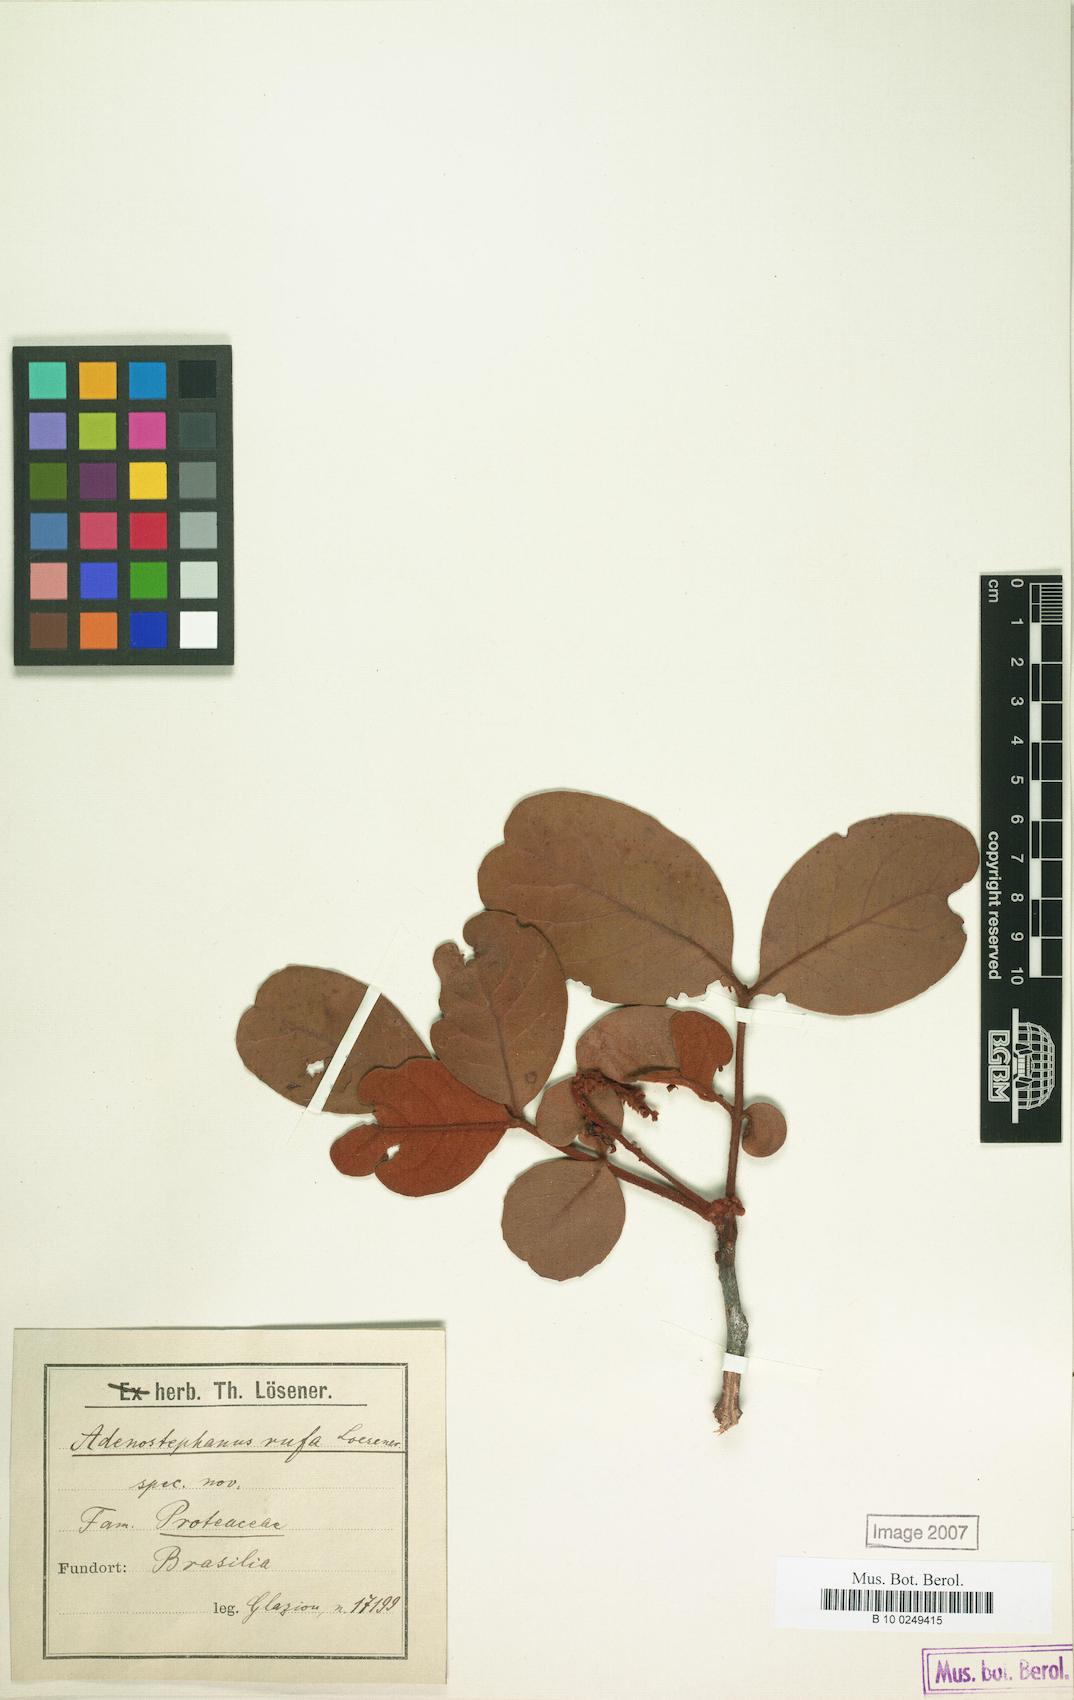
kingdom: Plantae
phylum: Tracheophyta
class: Magnoliopsida
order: Proteales
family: Proteaceae
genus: Euplassa
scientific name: Euplassa rufa
